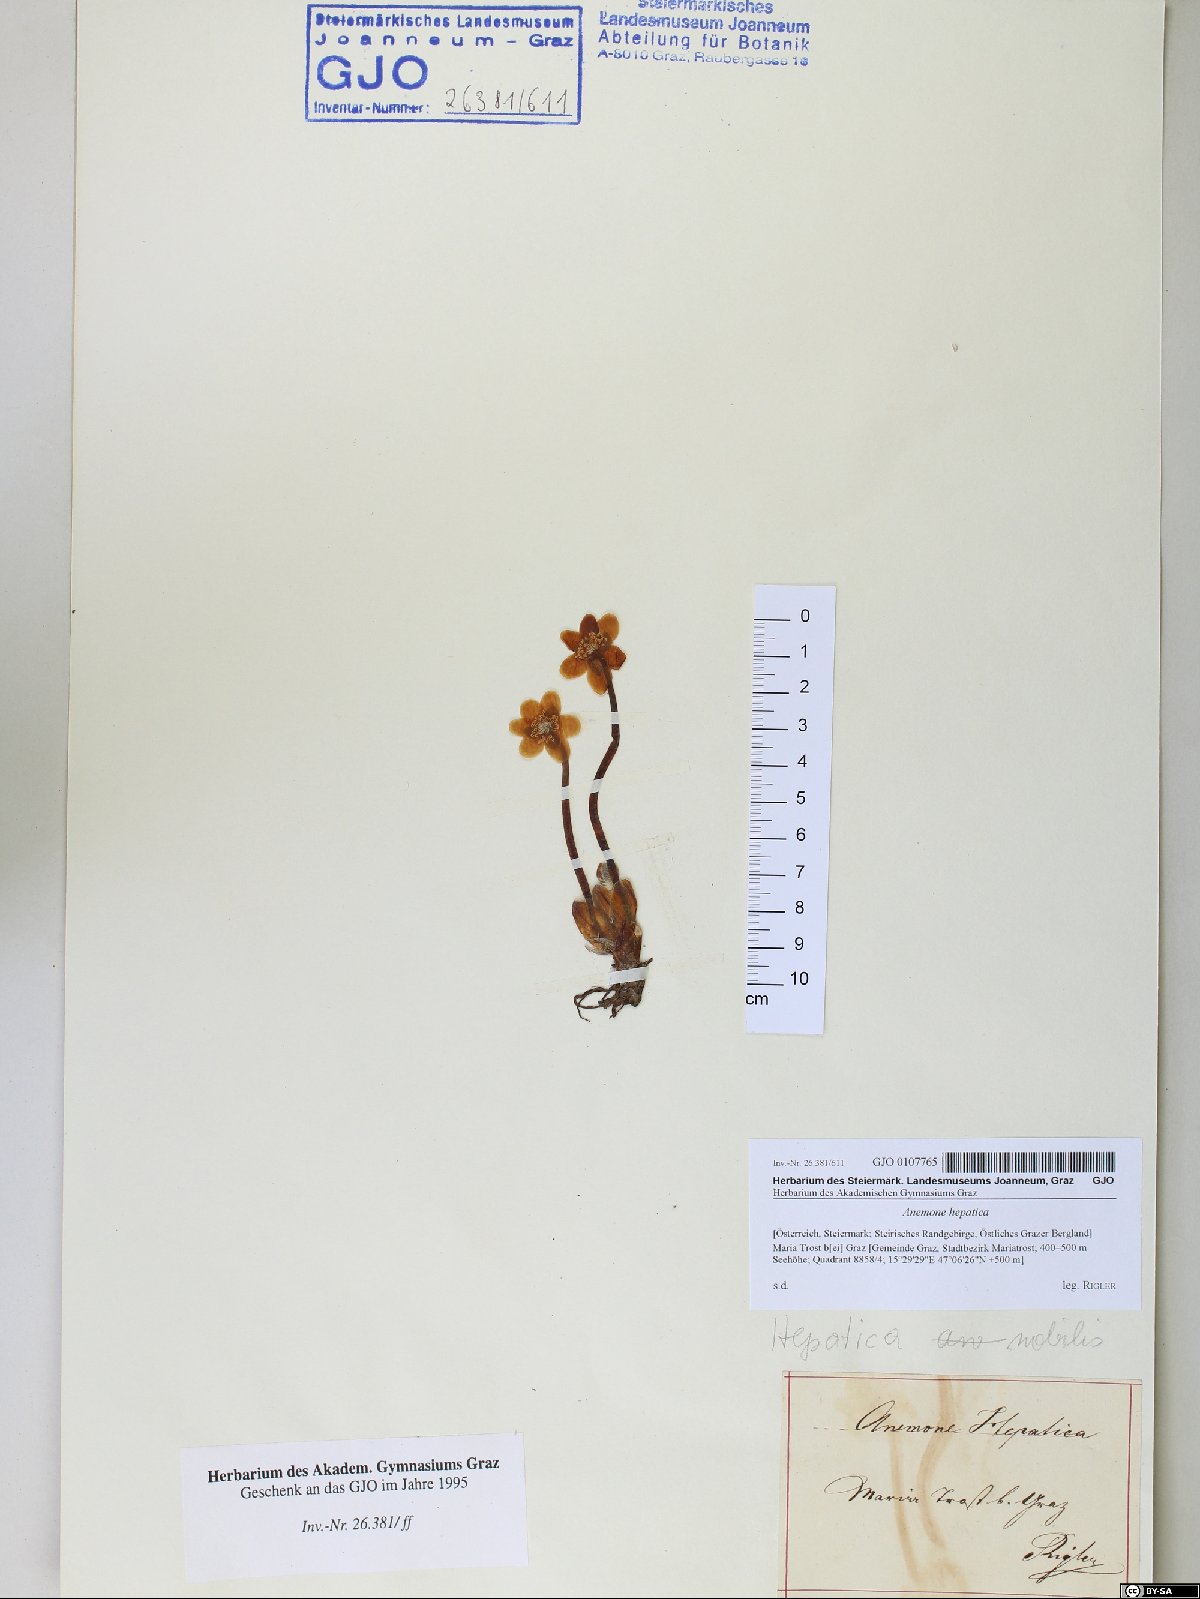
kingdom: Plantae
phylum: Tracheophyta
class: Magnoliopsida
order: Ranunculales
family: Ranunculaceae
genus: Hepatica
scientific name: Hepatica nobilis
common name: Liverleaf
